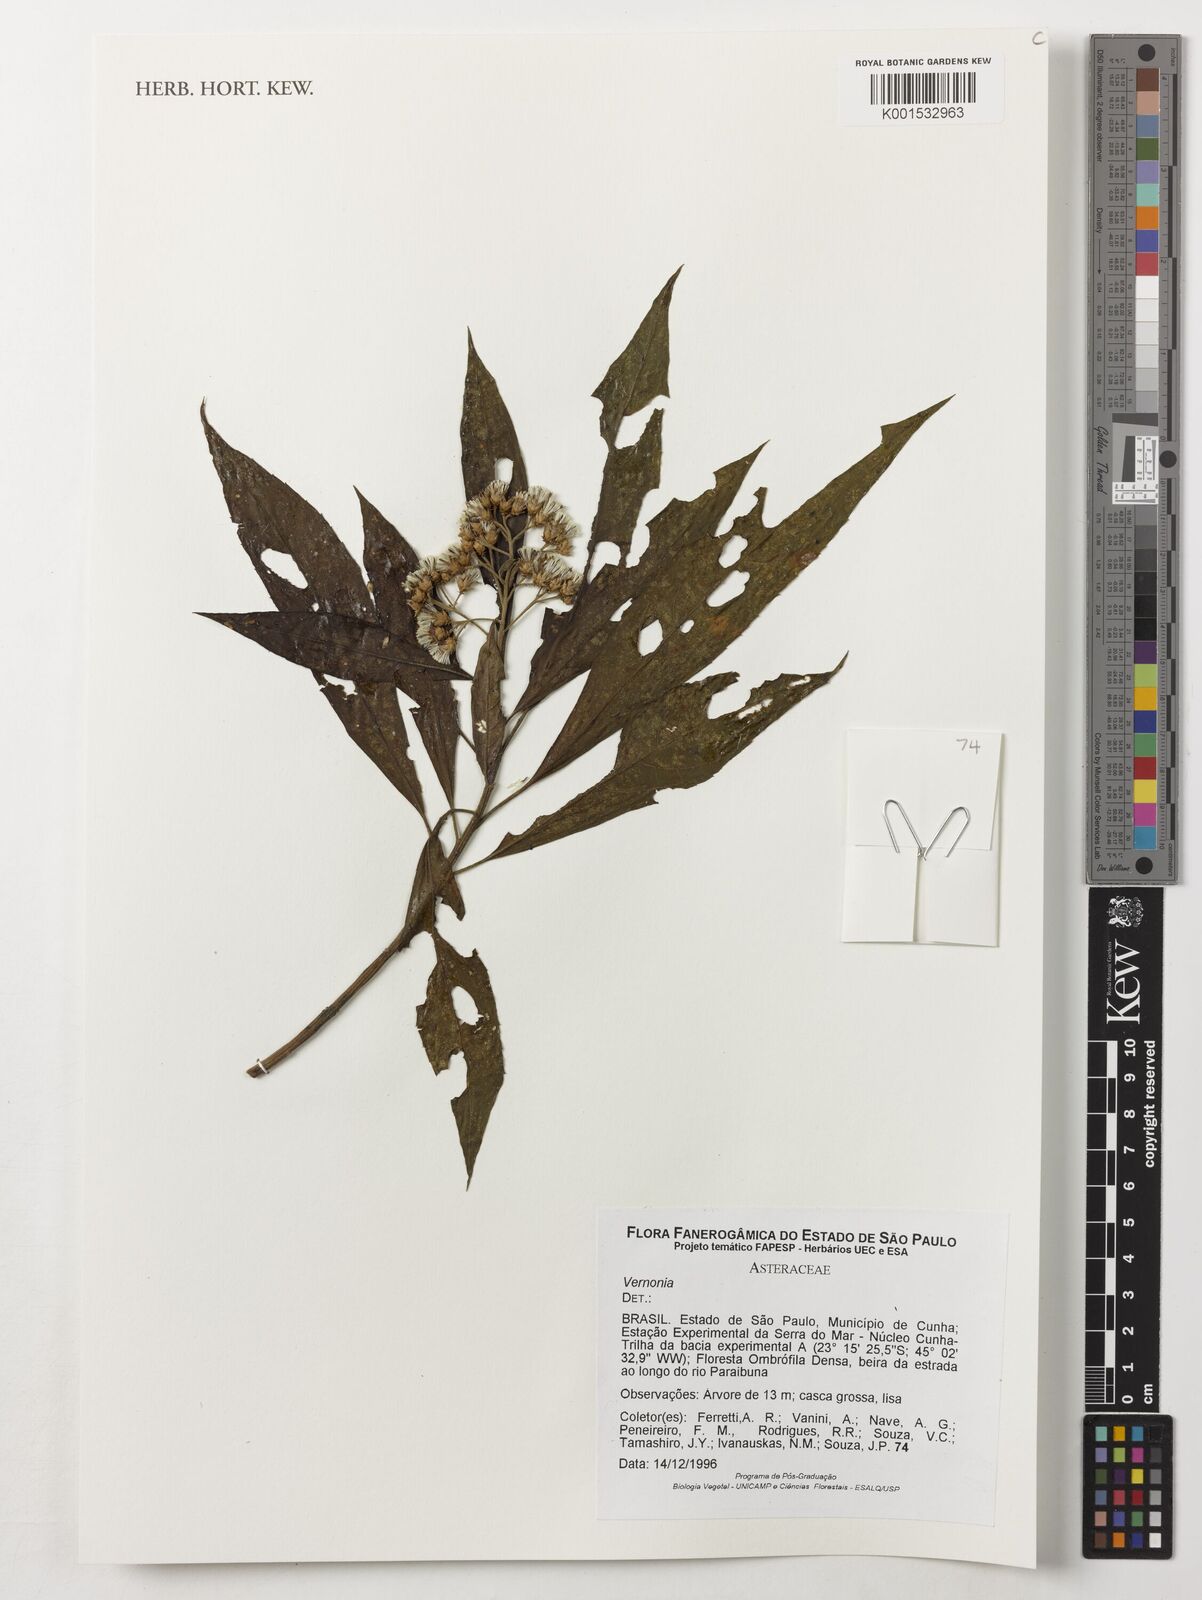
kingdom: Plantae
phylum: Tracheophyta
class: Magnoliopsida
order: Asterales
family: Asteraceae
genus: Vernonia
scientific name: Vernonia
